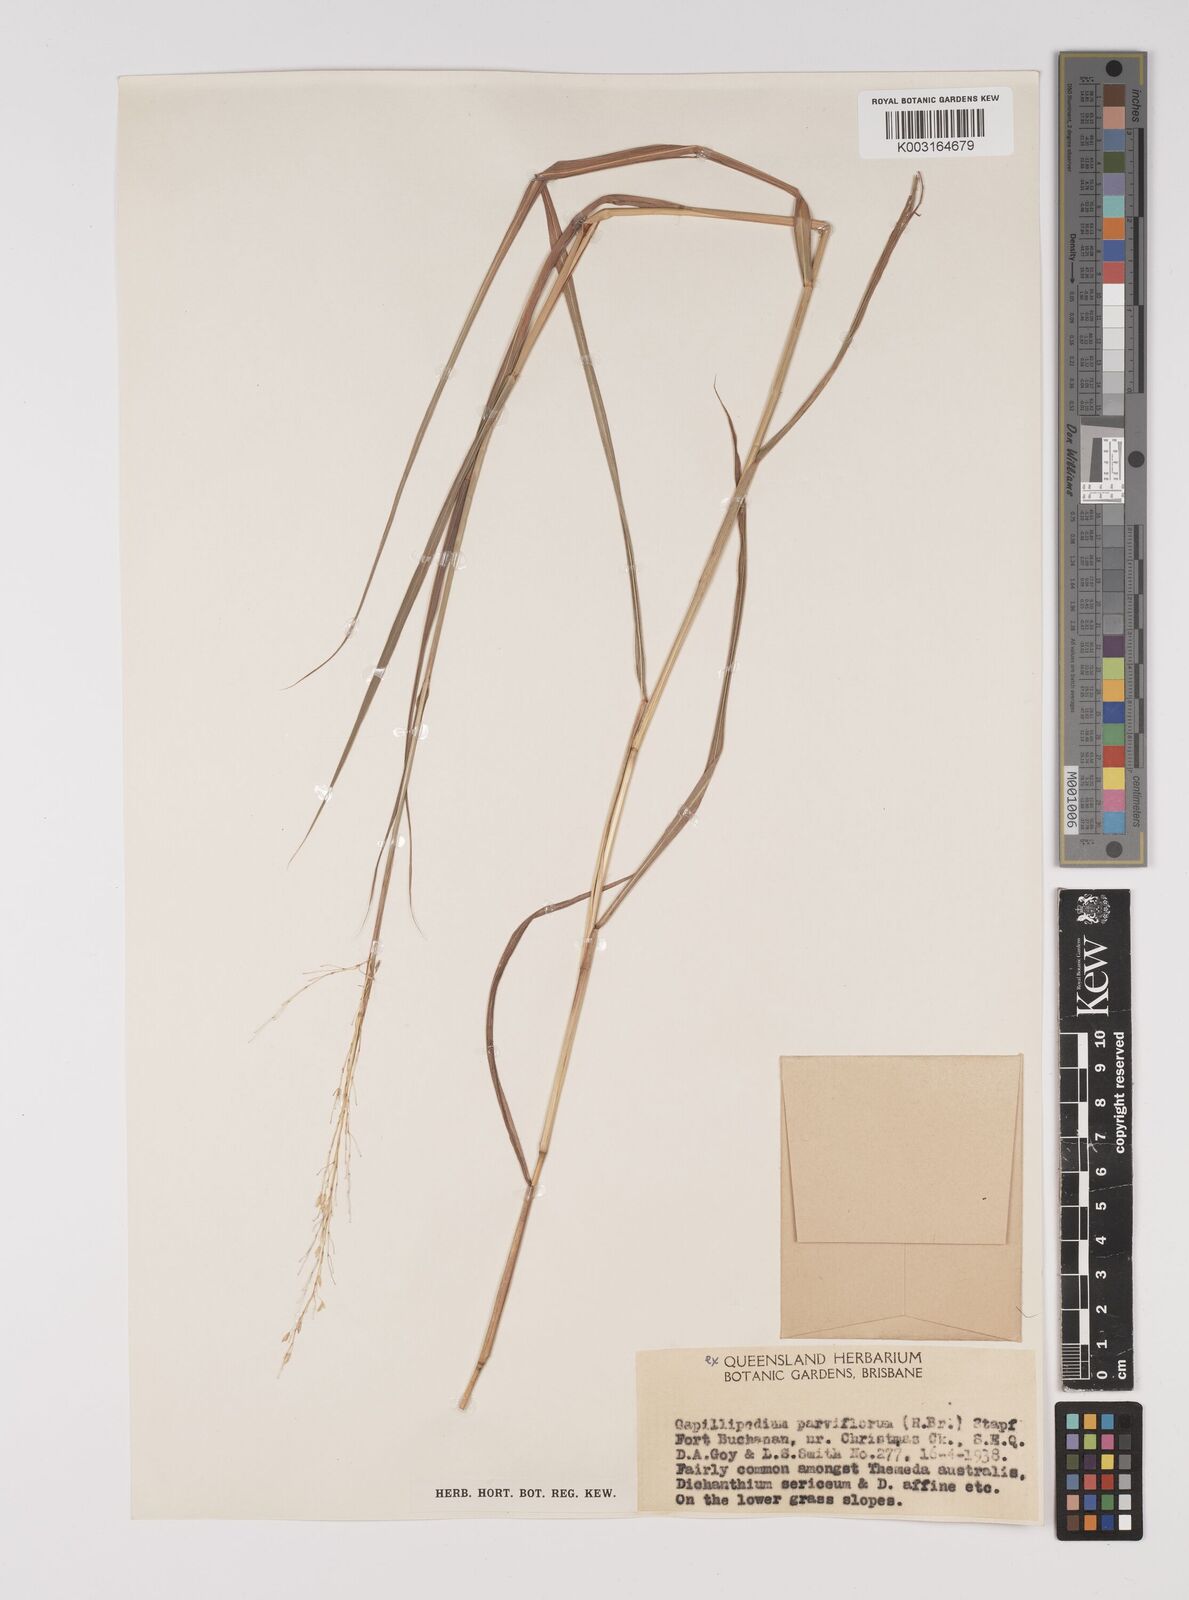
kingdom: Plantae
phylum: Tracheophyta
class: Liliopsida
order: Poales
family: Poaceae
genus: Capillipedium
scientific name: Capillipedium parviflorum
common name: Golden-beard
